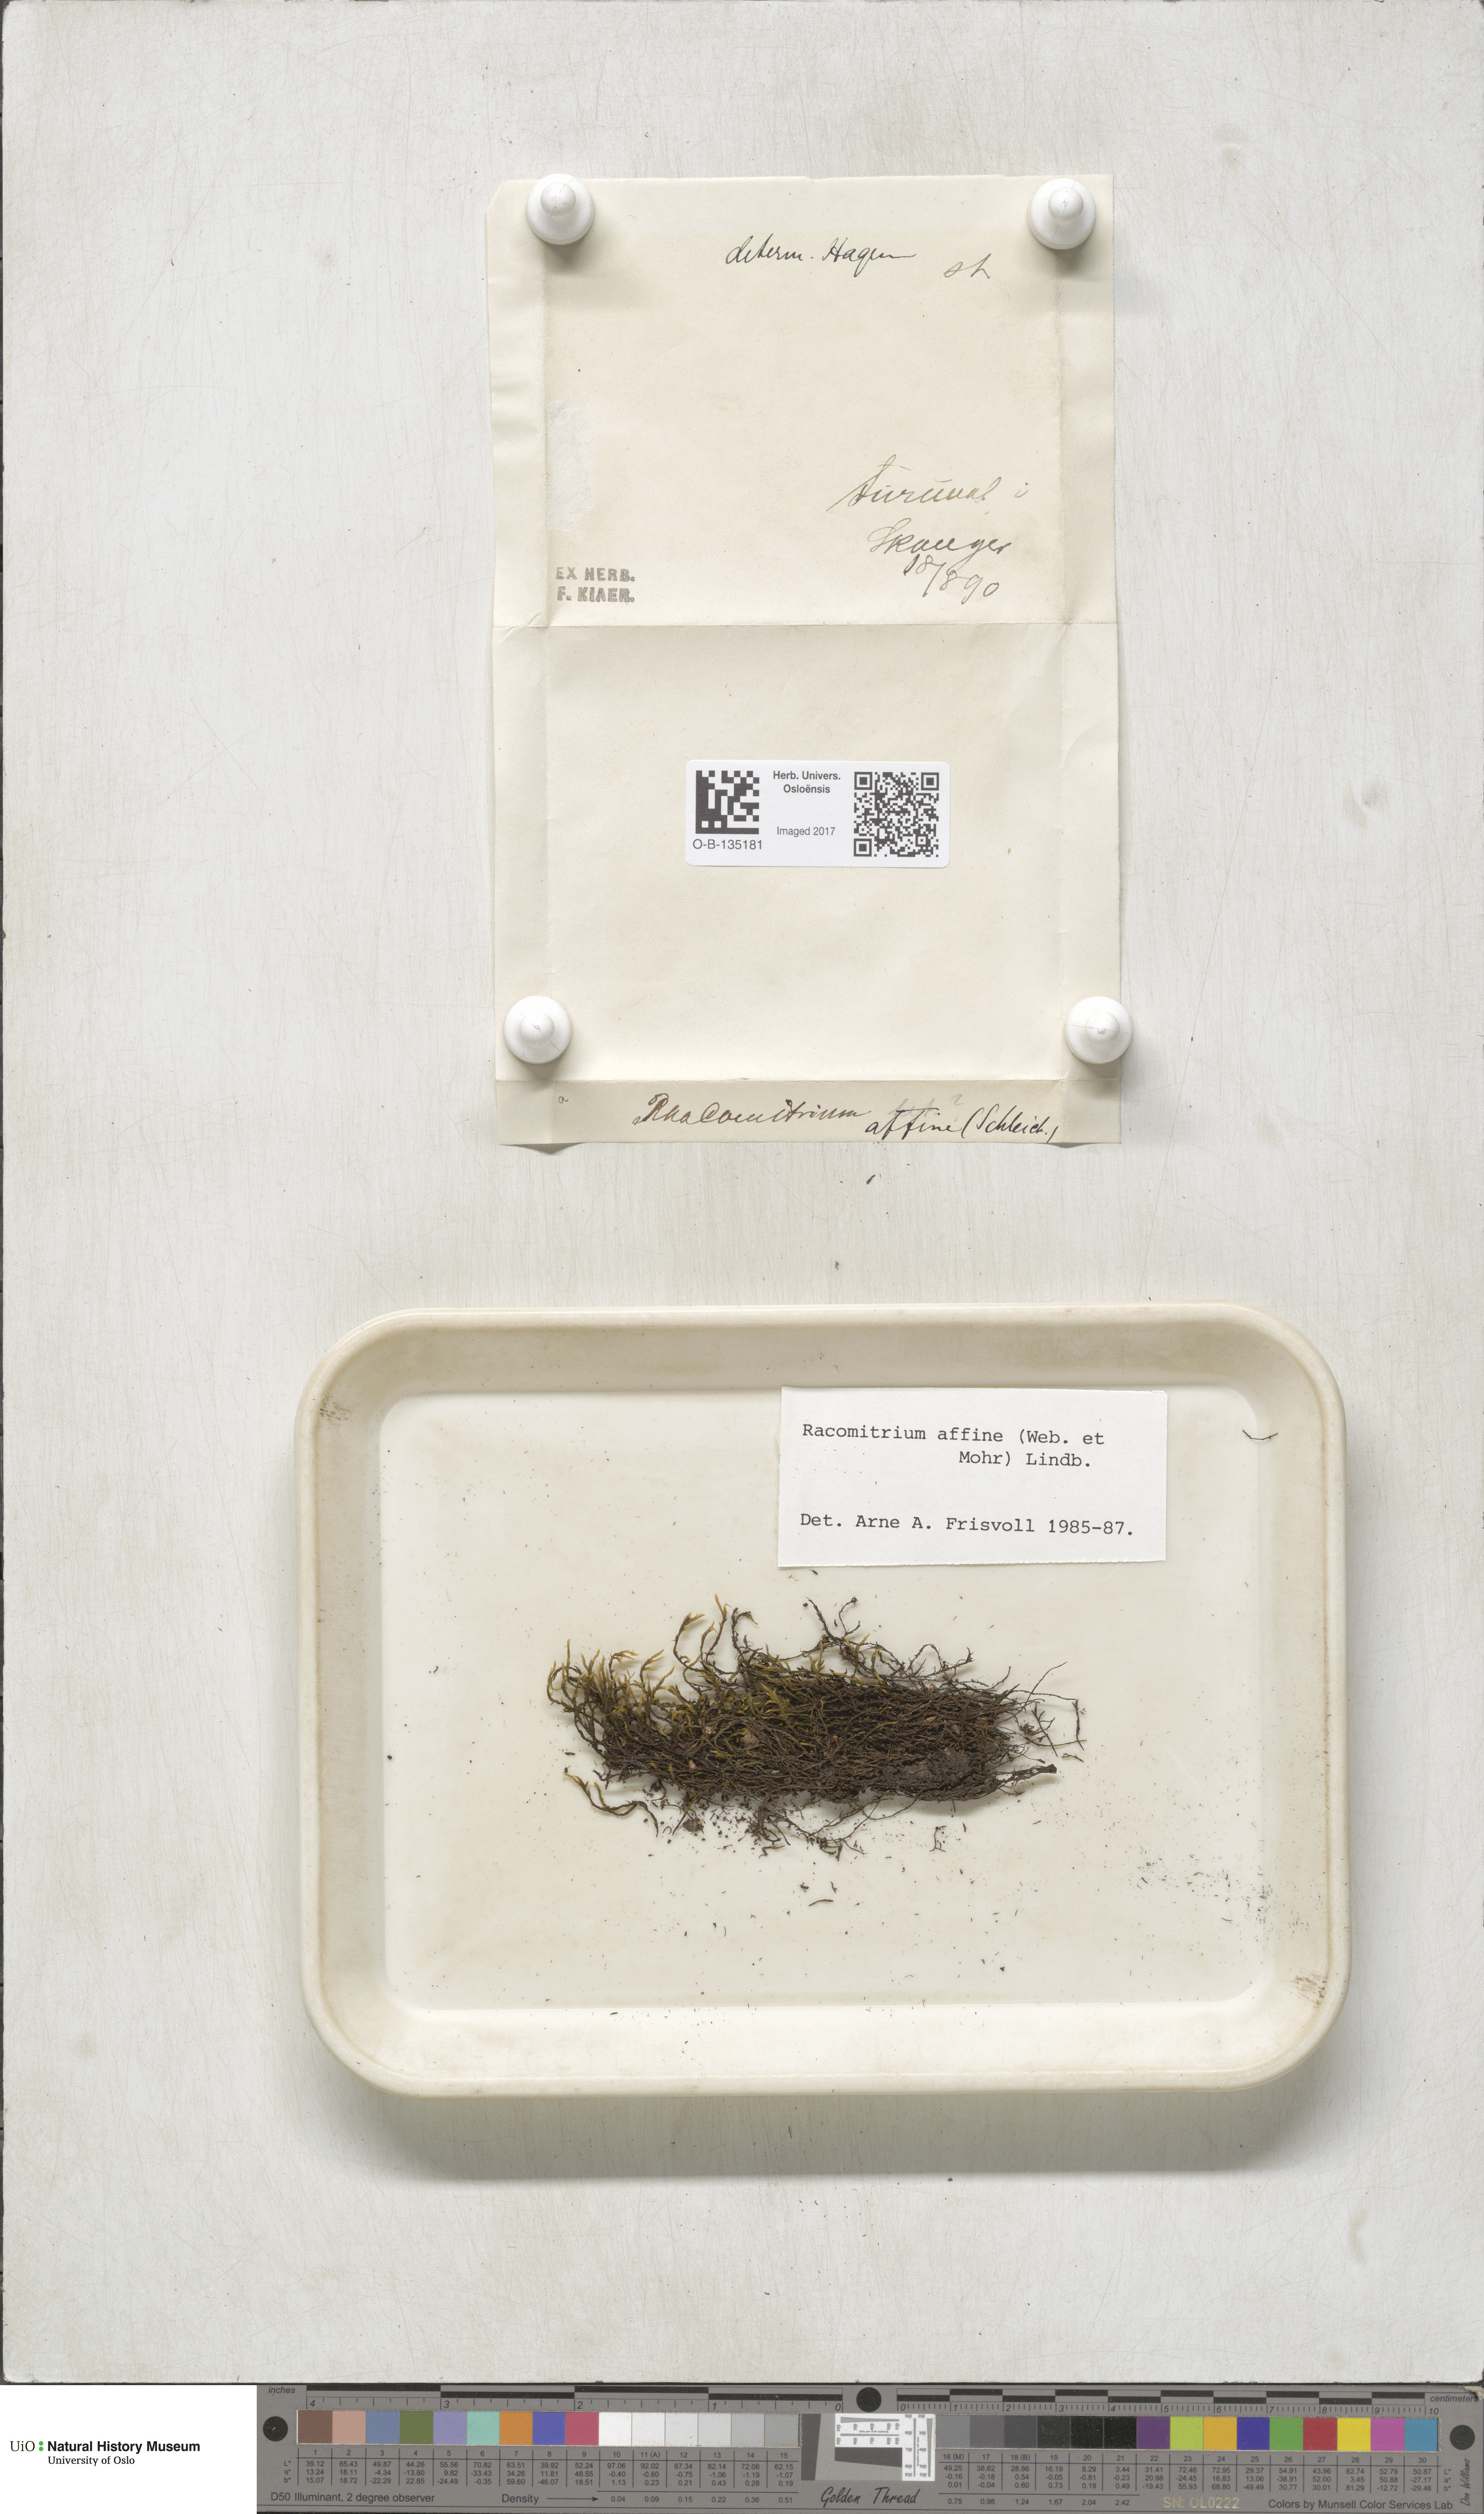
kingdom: Plantae
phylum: Bryophyta
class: Bryopsida
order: Grimmiales
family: Grimmiaceae
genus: Bucklandiella
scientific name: Bucklandiella affinis
